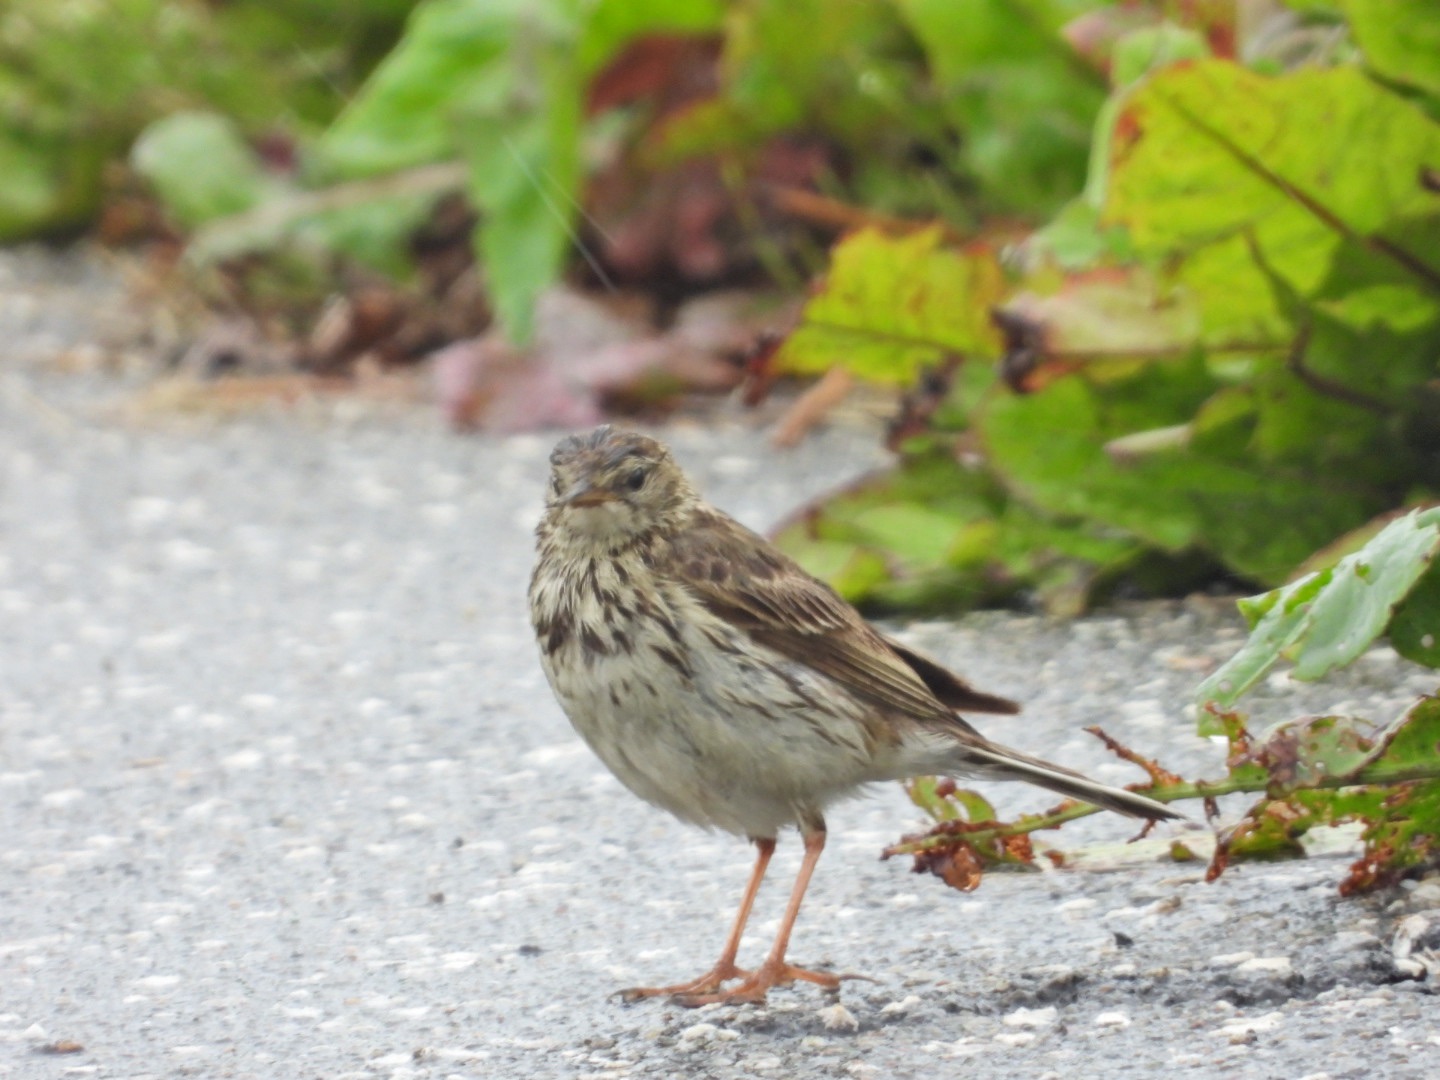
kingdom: Animalia
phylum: Chordata
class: Aves
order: Passeriformes
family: Motacillidae
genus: Anthus
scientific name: Anthus pratensis
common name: Engpiber
